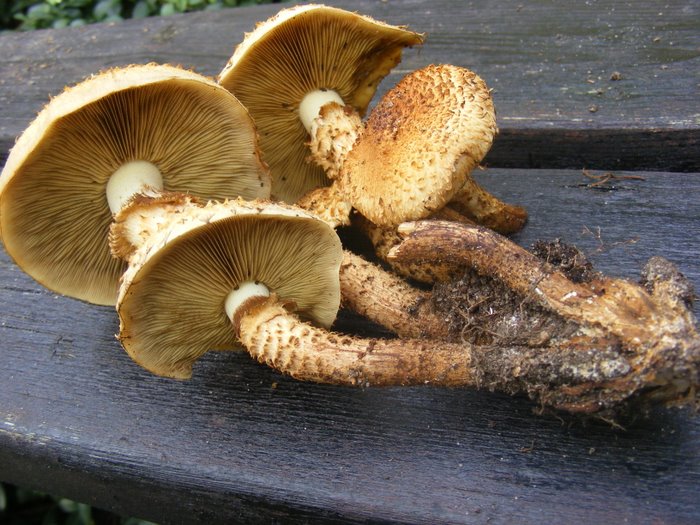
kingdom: Fungi
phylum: Basidiomycota
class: Agaricomycetes
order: Agaricales
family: Strophariaceae
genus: Pholiota
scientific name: Pholiota squarrosa
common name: krumskællet skælhat
